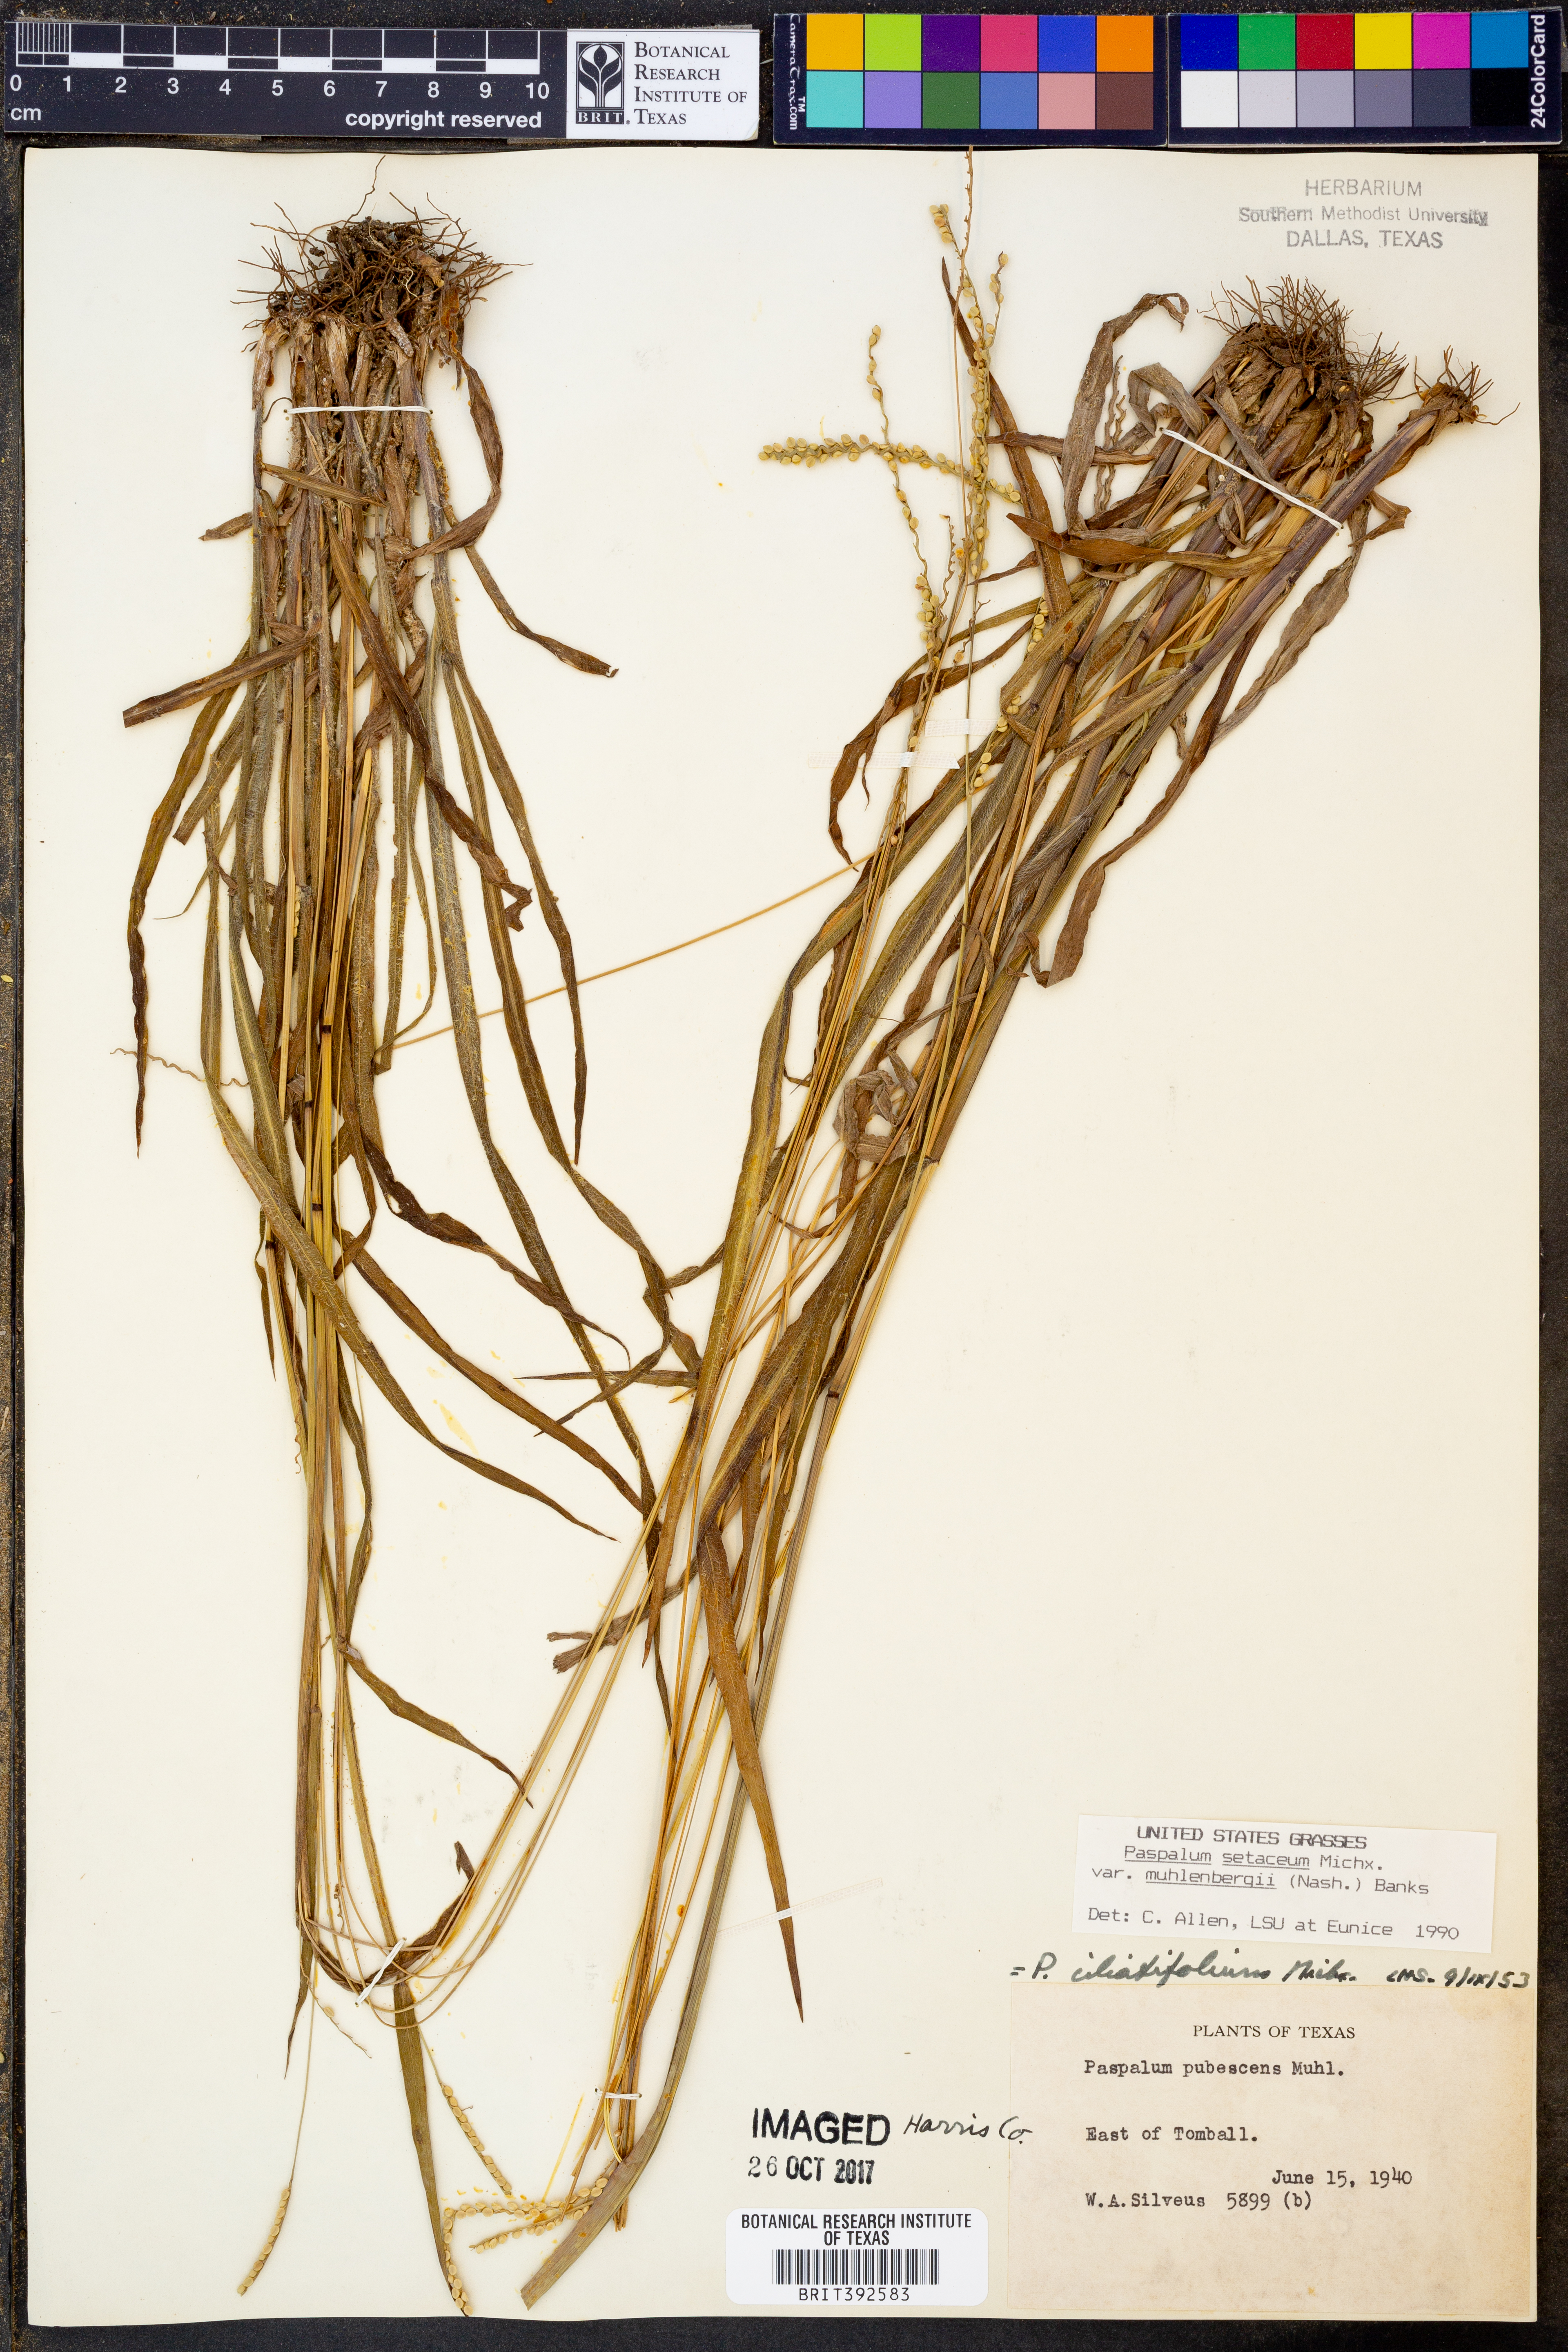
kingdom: Plantae
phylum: Tracheophyta
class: Liliopsida
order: Poales
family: Poaceae
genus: Paspalum
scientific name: Paspalum setaceum
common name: Slender paspalum
